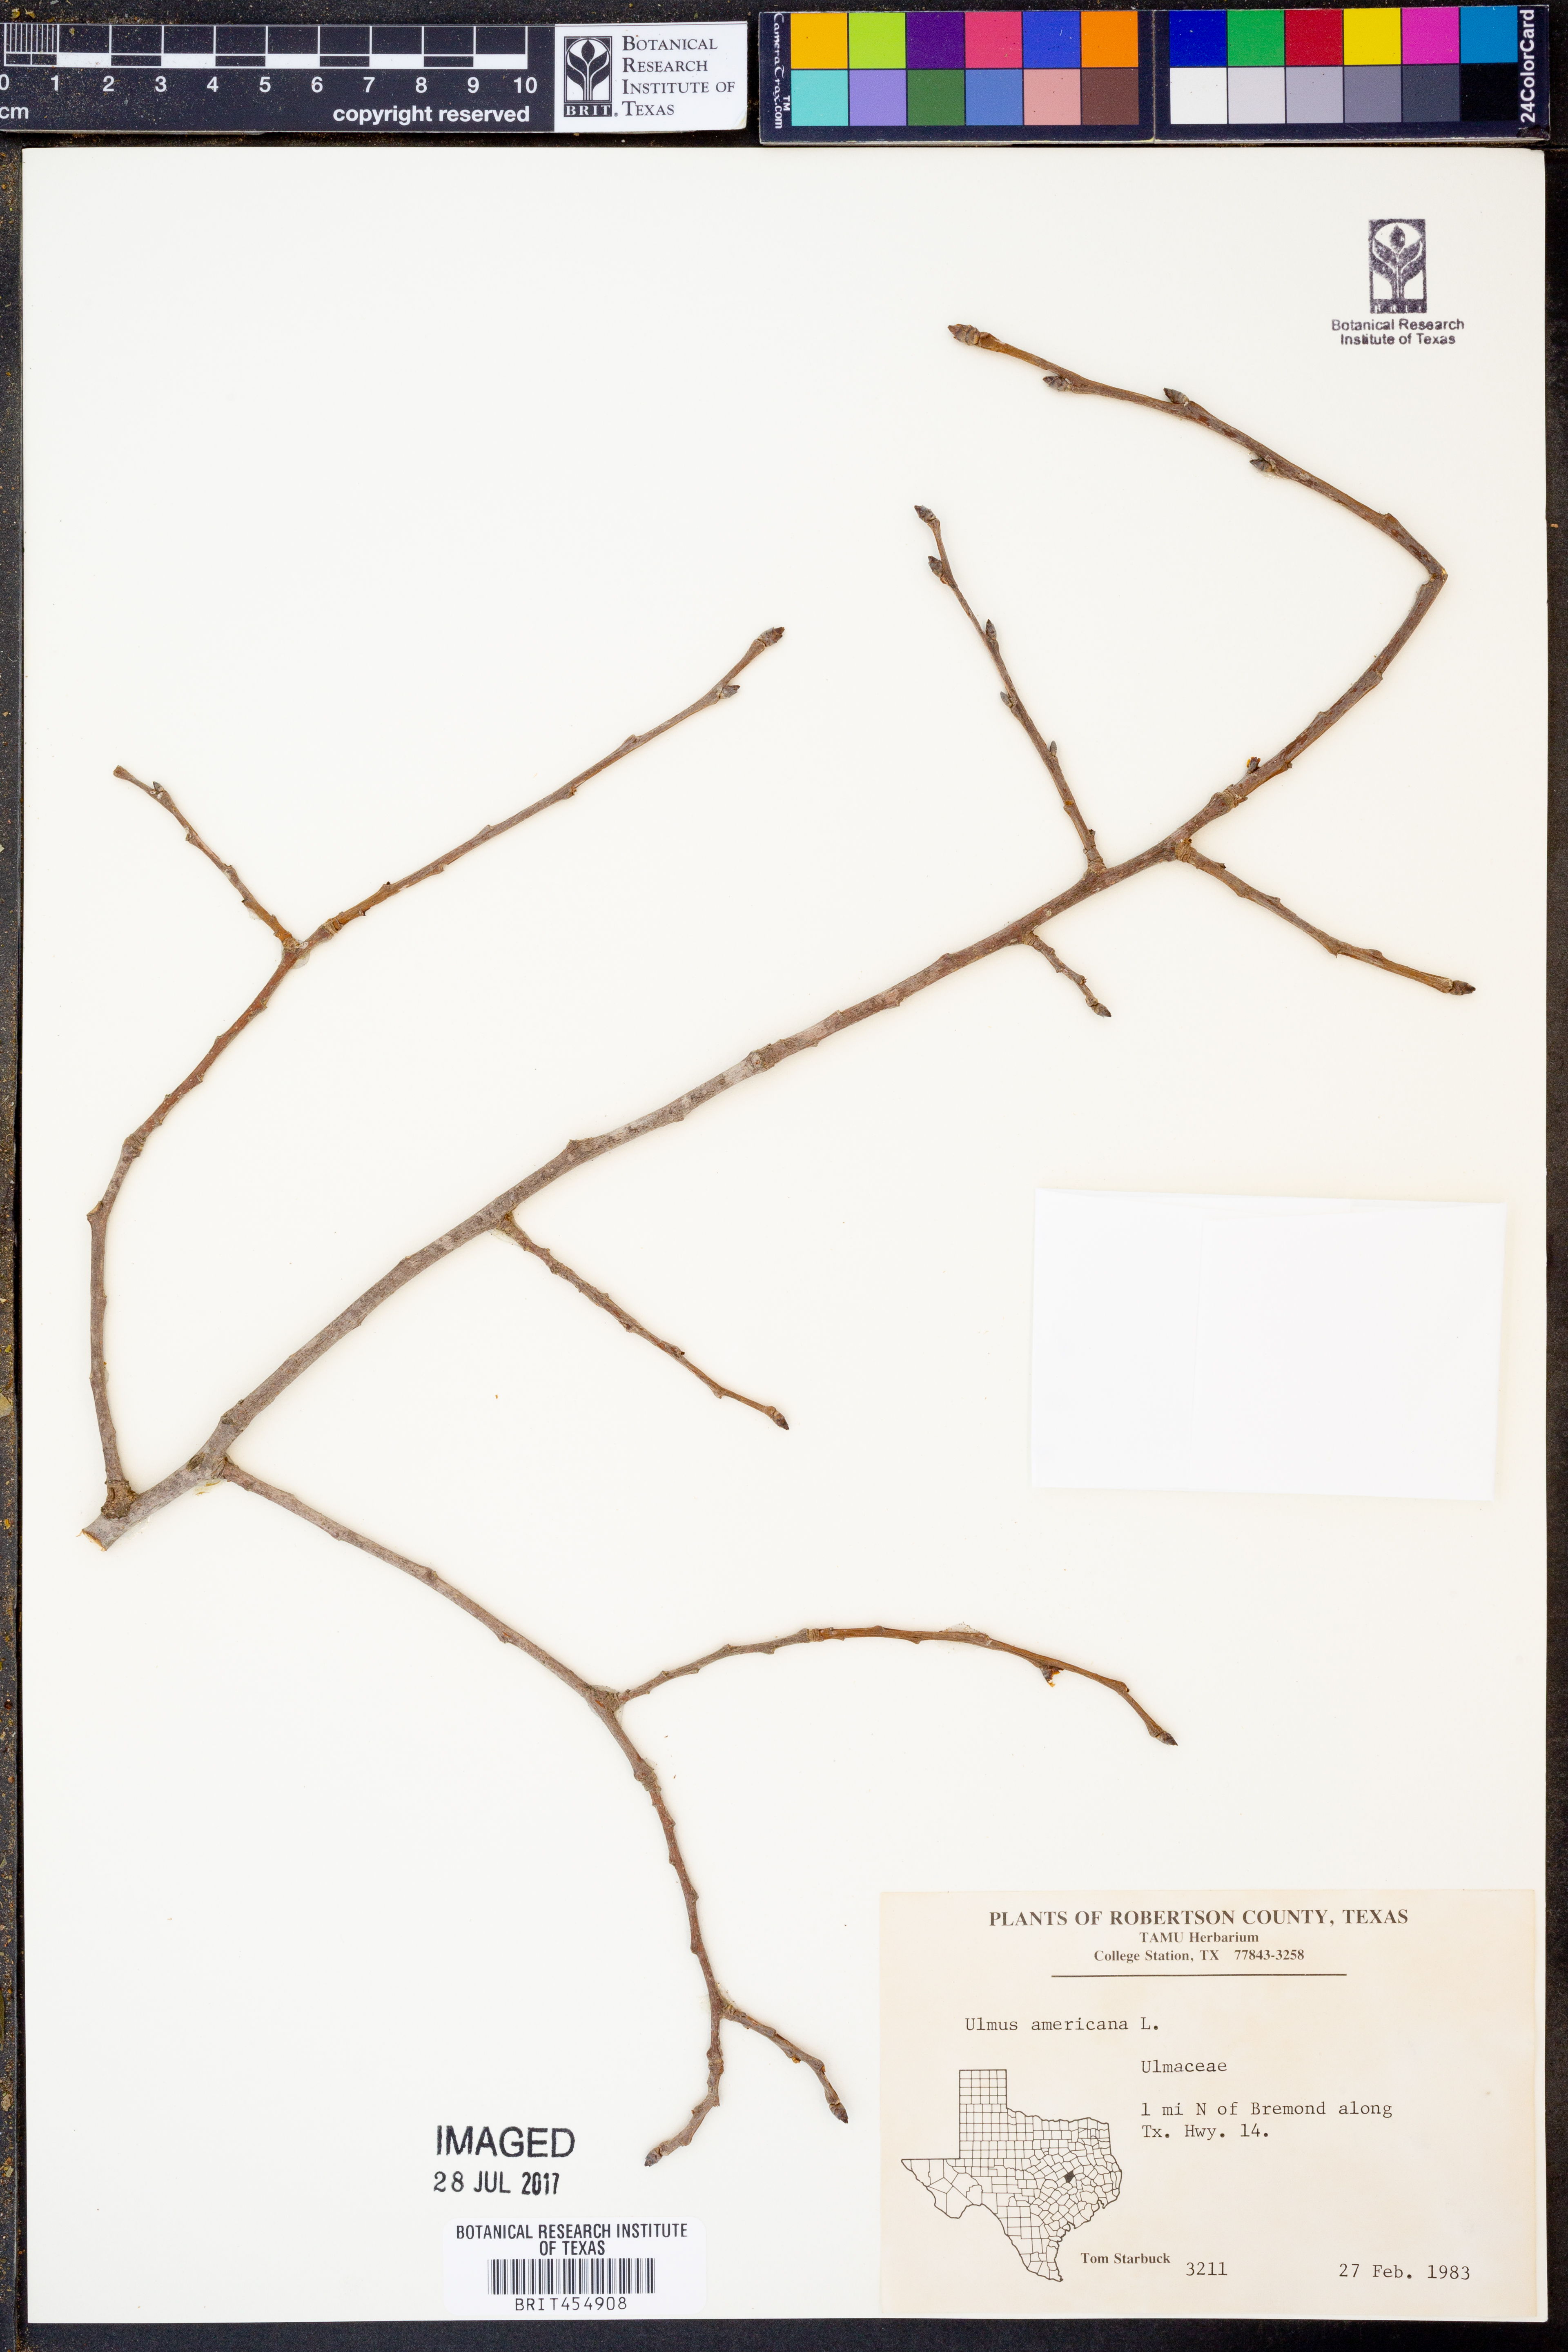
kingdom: Plantae
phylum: Tracheophyta
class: Magnoliopsida
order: Rosales
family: Ulmaceae
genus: Ulmus
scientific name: Ulmus americana
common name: American elm
